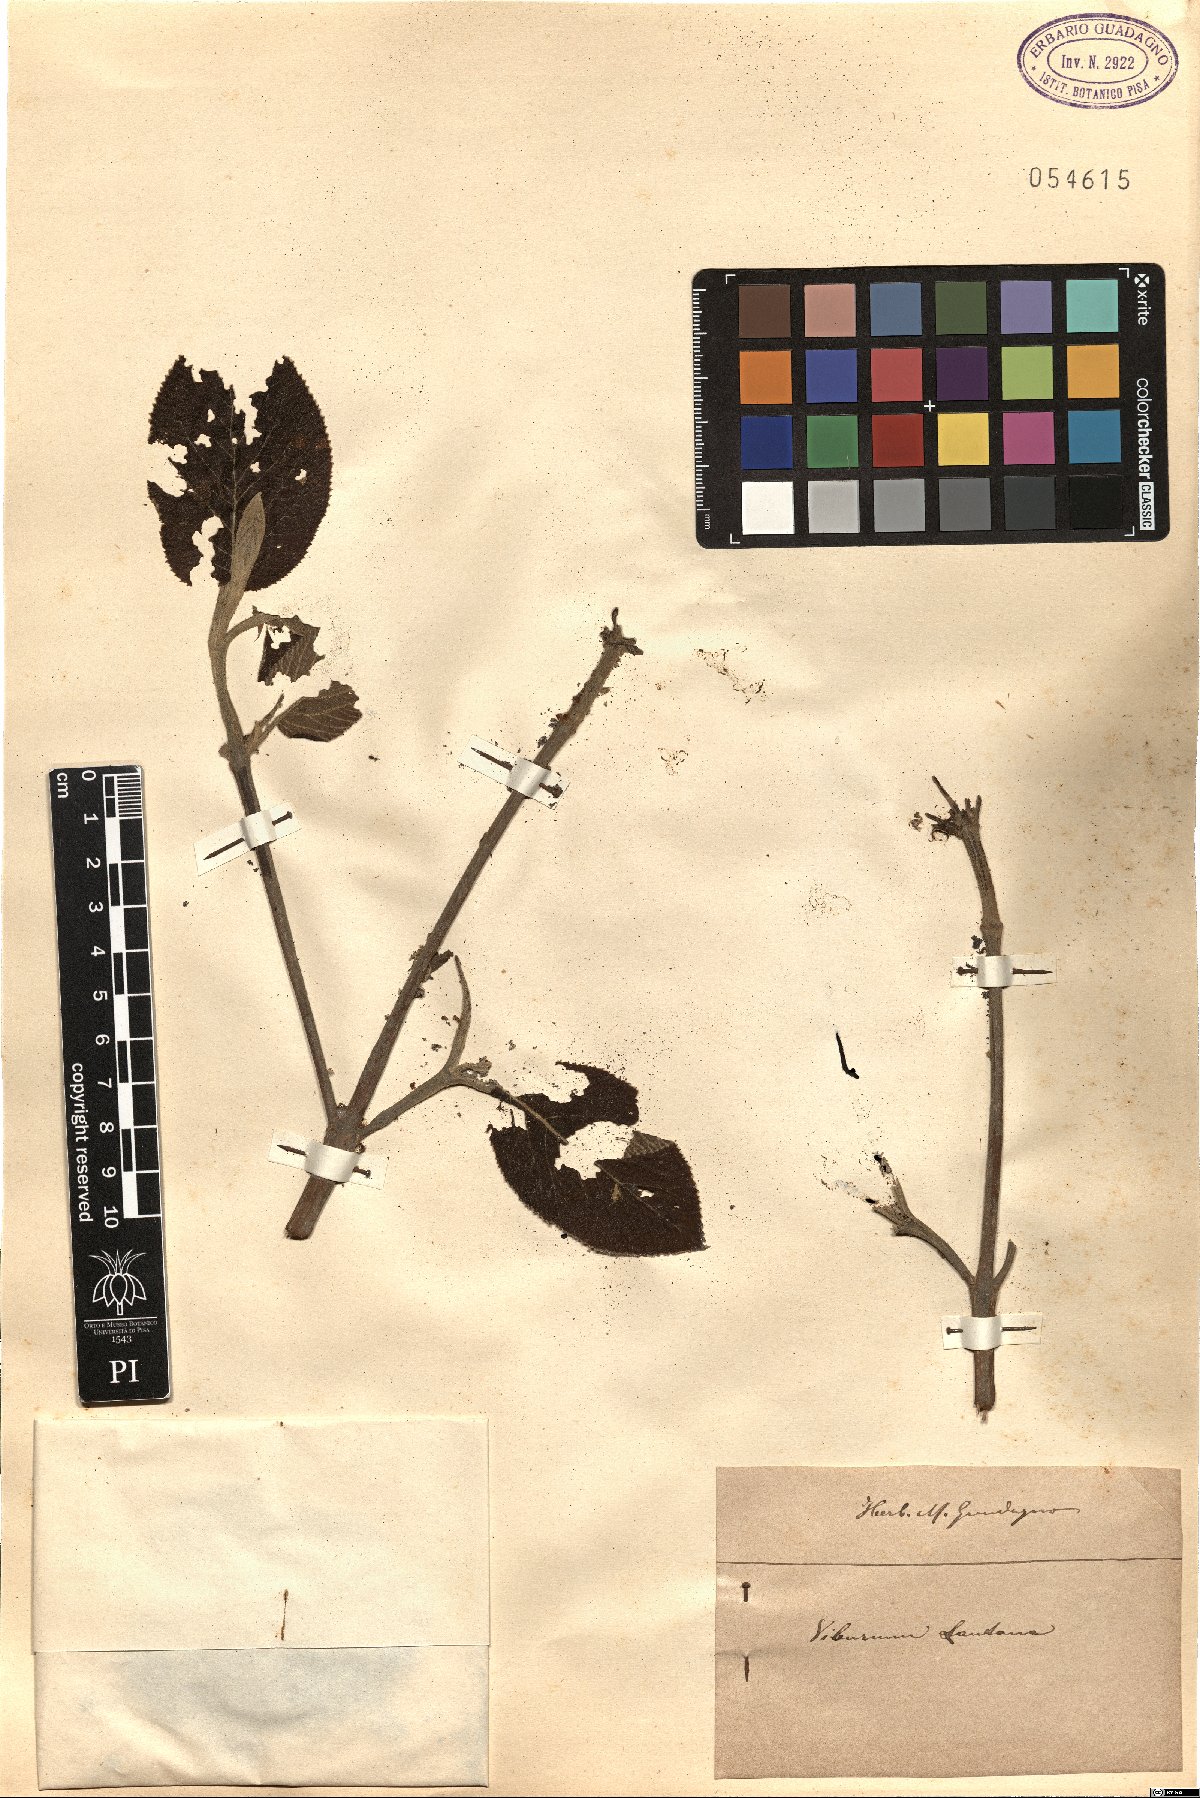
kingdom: Plantae
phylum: Tracheophyta
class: Magnoliopsida
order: Dipsacales
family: Viburnaceae
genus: Viburnum
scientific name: Viburnum lantana
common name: Wayfaring tree
